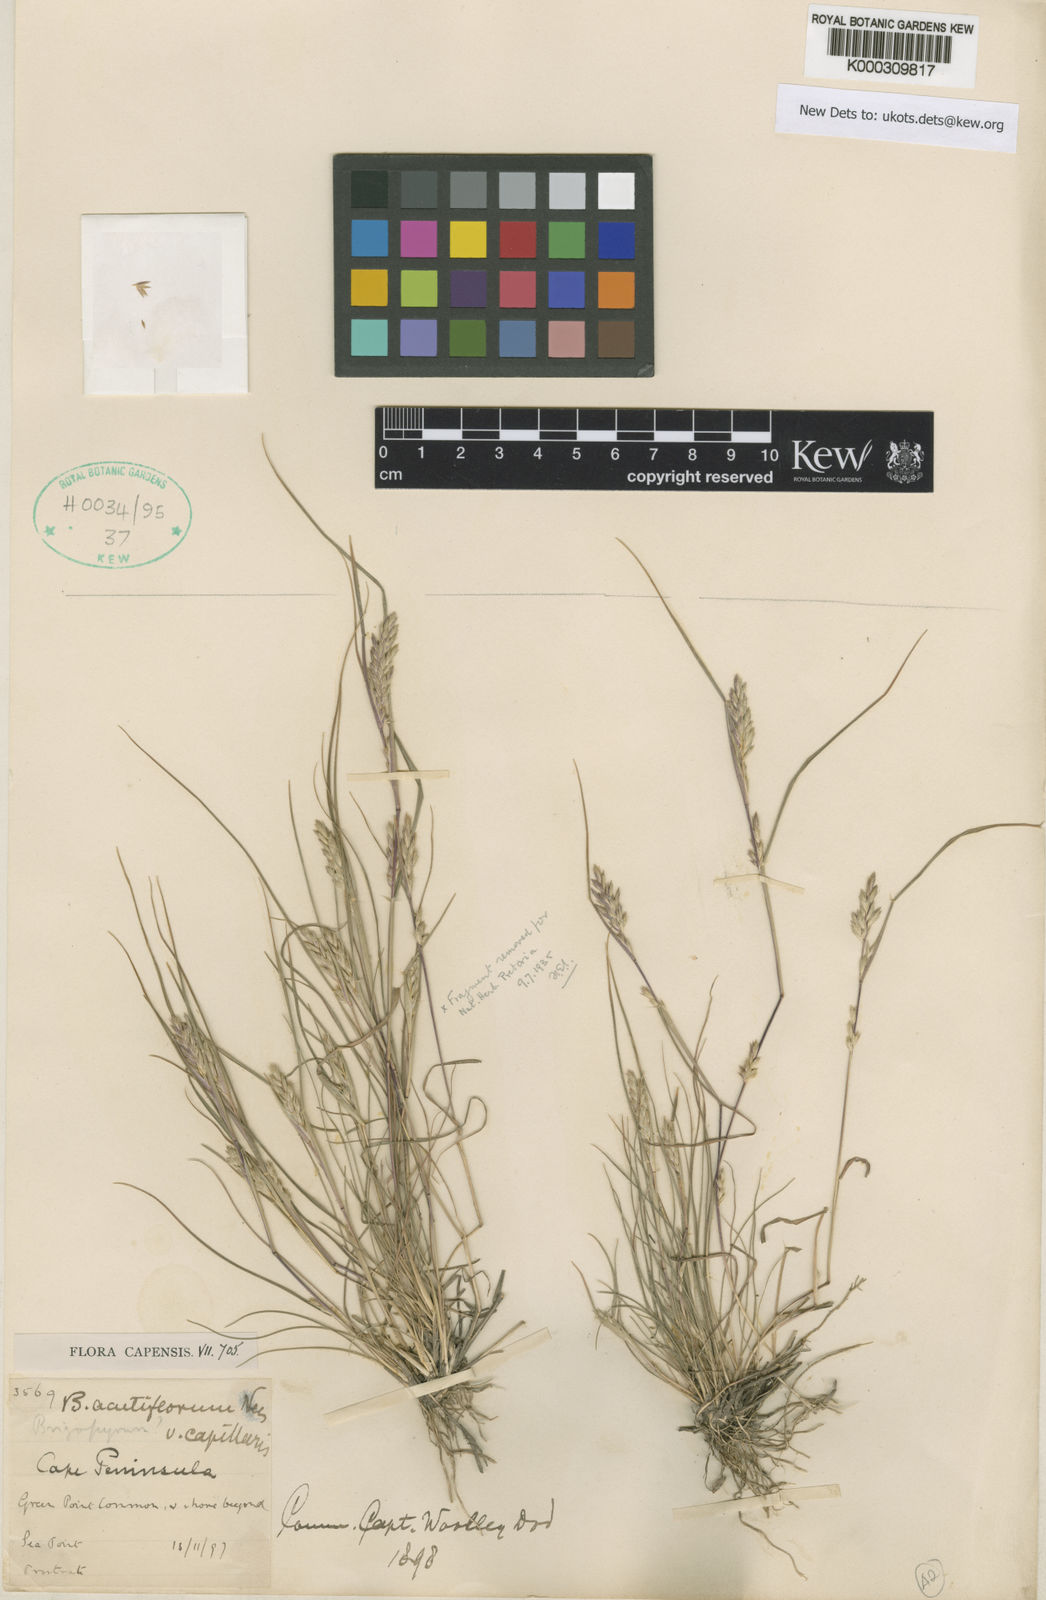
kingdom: Plantae
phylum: Tracheophyta
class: Liliopsida
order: Poales
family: Poaceae
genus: Tribolium
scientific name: Tribolium obliterum
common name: Capetown grass
